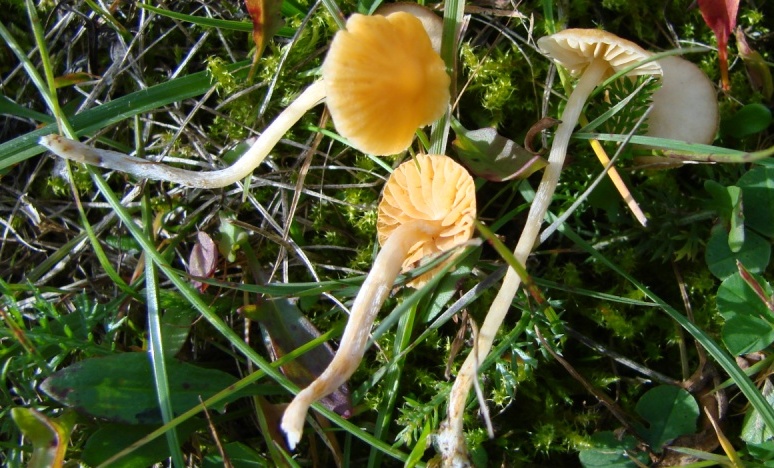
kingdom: Fungi
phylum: Basidiomycota
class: Agaricomycetes
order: Agaricales
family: Hymenogastraceae
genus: Galerina
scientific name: Galerina graminea
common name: plæne-hjelmhat
